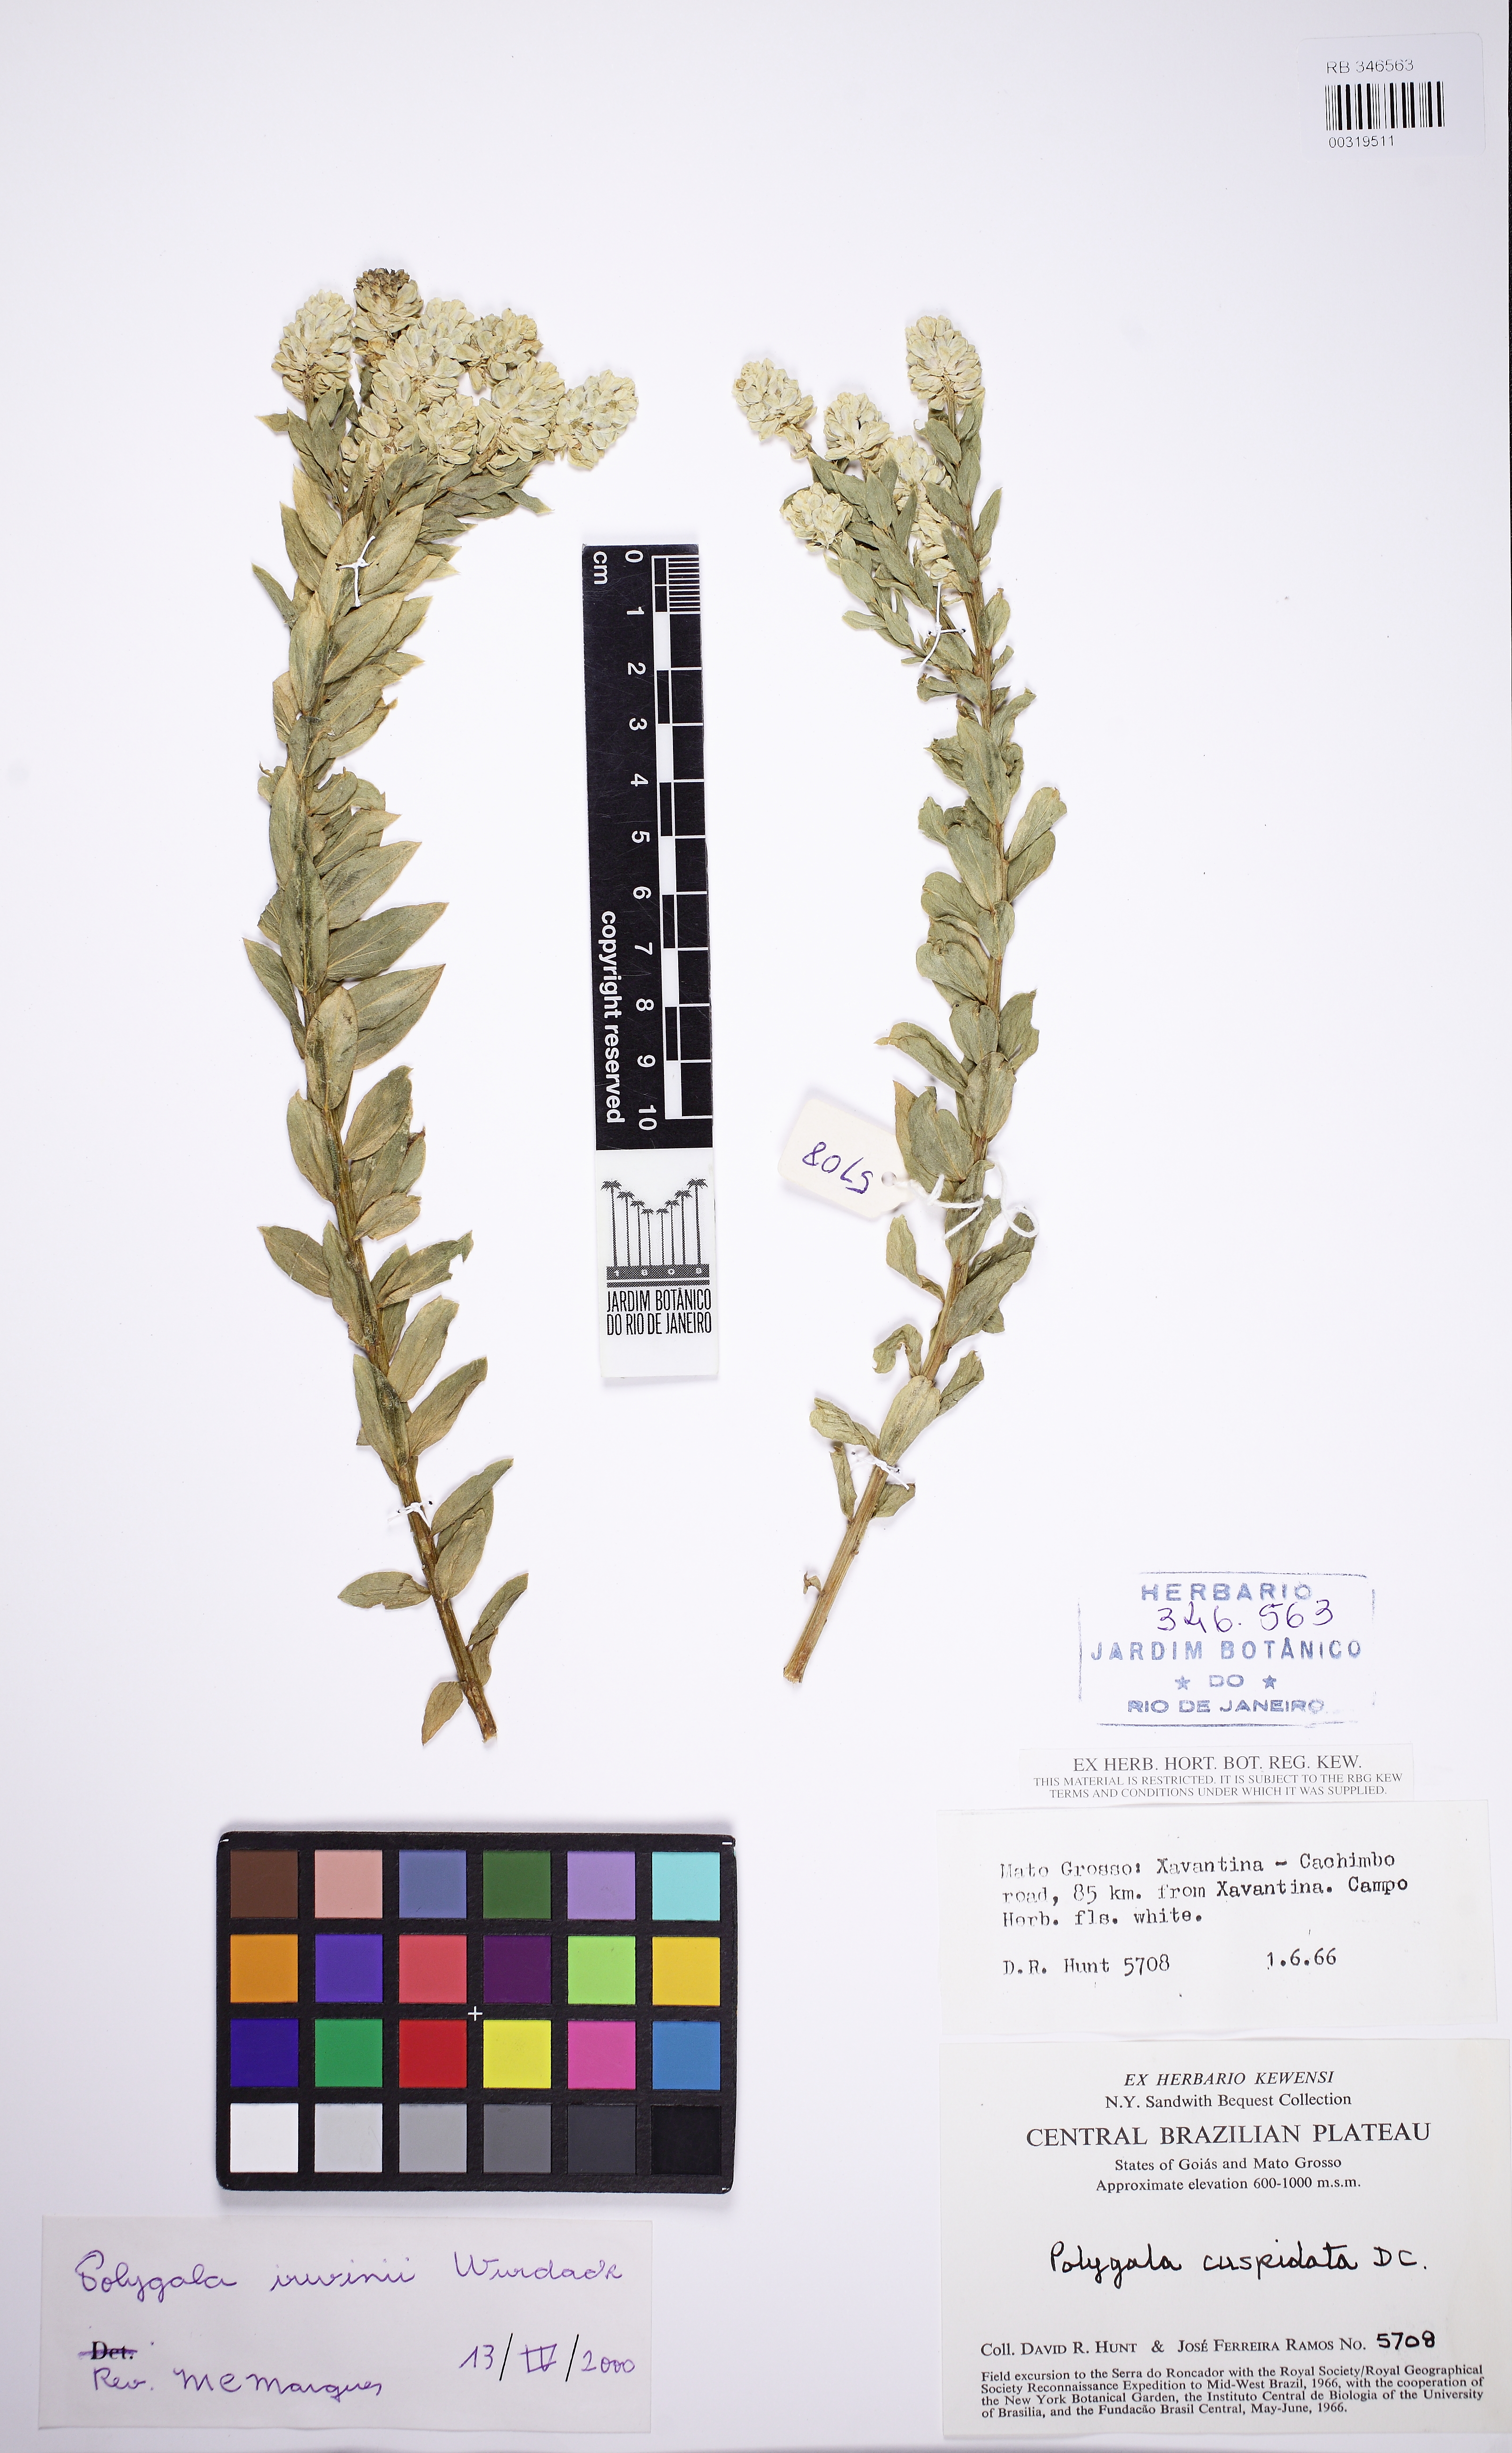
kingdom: Plantae
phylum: Tracheophyta
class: Magnoliopsida
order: Fabales
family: Polygalaceae
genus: Polygala
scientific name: Polygala irwinii
